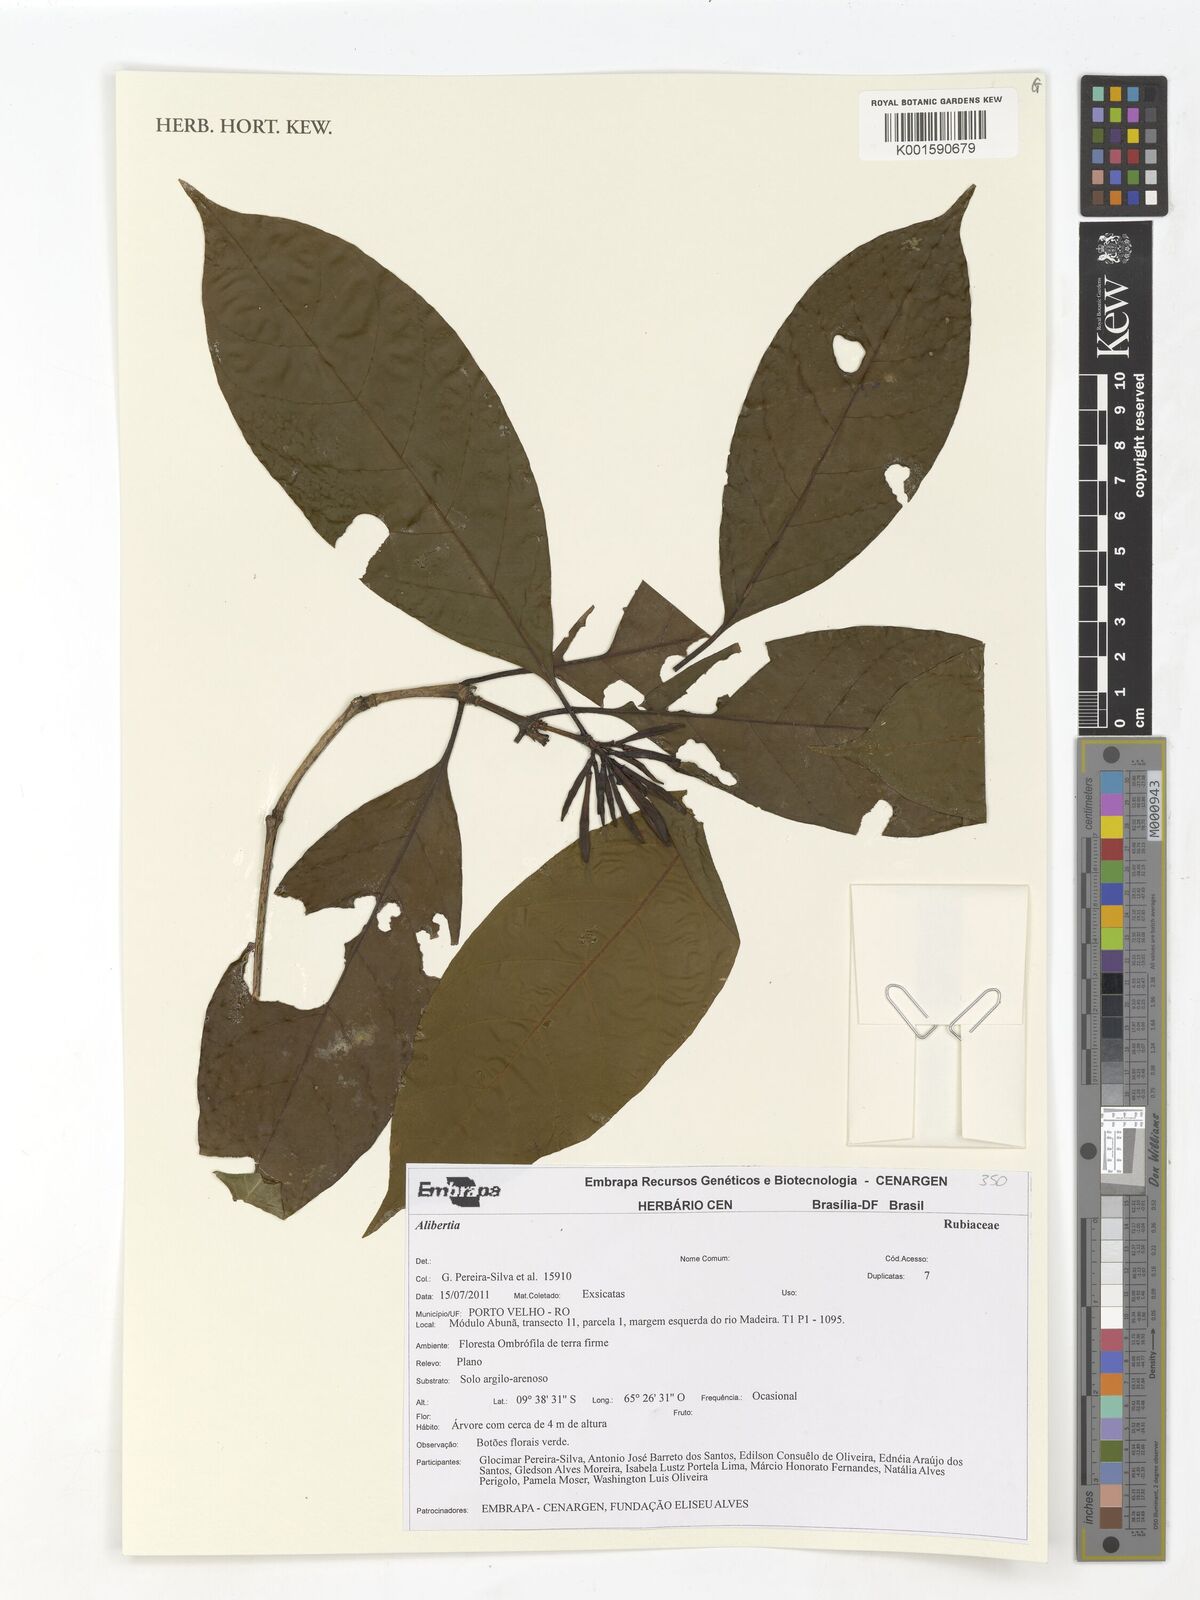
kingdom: Plantae
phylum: Tracheophyta
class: Magnoliopsida
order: Gentianales
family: Rubiaceae
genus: Alibertia
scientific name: Alibertia
